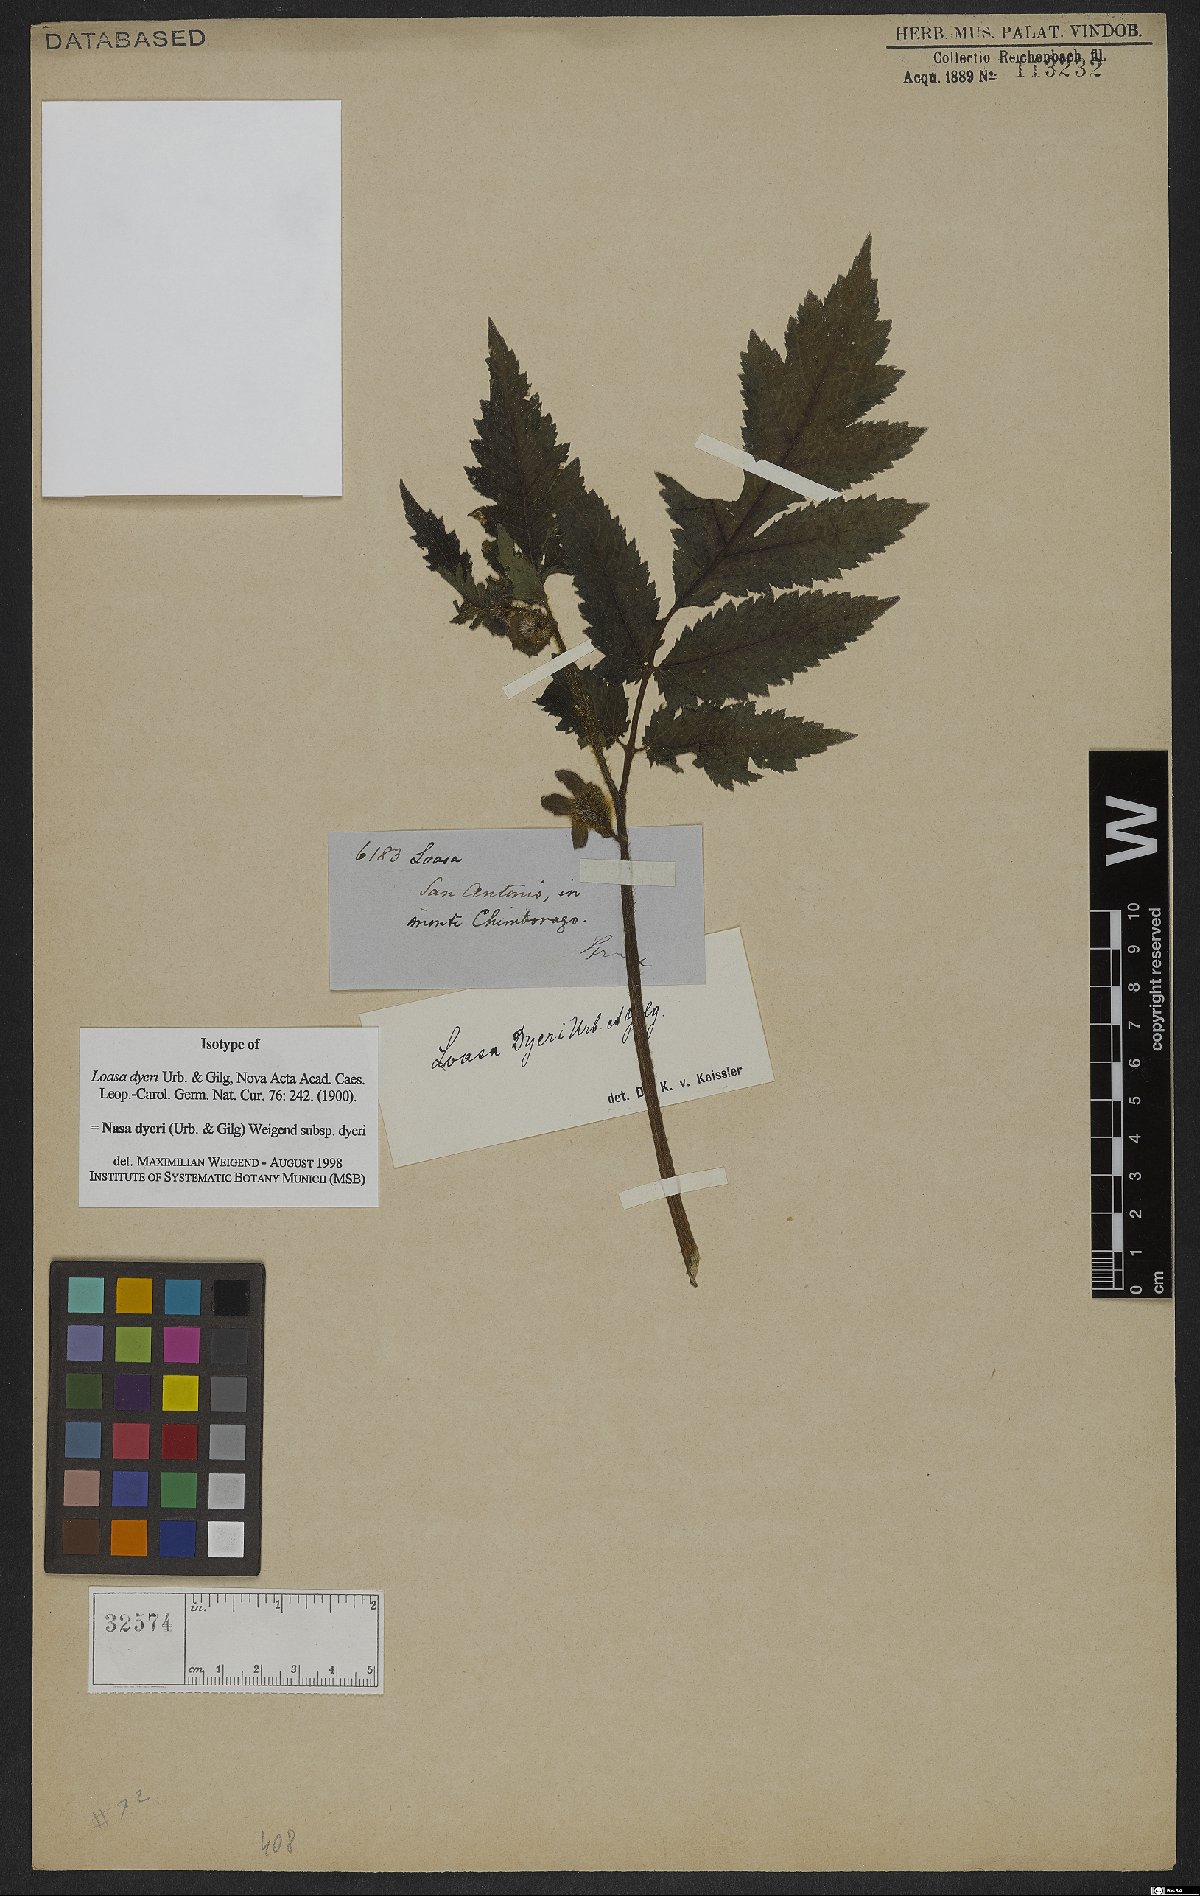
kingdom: Plantae
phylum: Tracheophyta
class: Magnoliopsida
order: Cornales
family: Loasaceae
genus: Nasa
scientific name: Nasa dyeri
